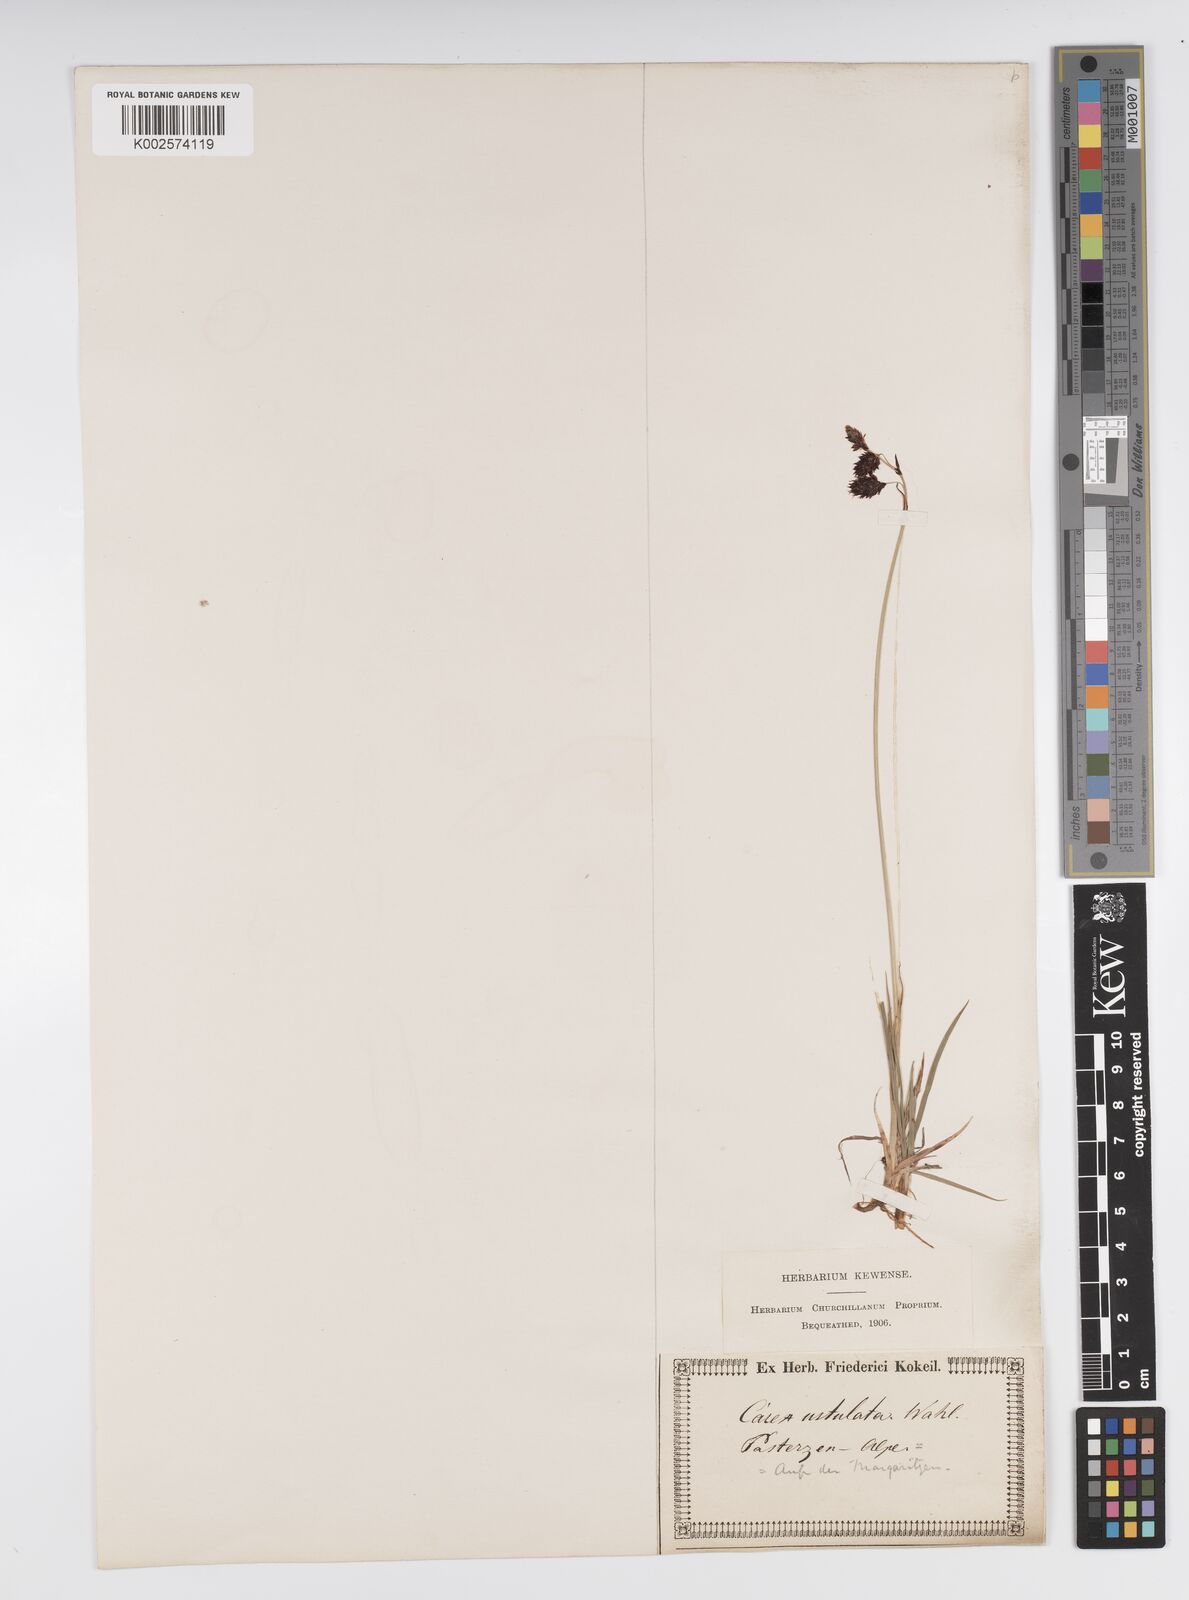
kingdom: Plantae
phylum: Tracheophyta
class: Liliopsida
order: Poales
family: Cyperaceae
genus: Carex
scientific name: Carex atrofusca
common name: Scorched alpine-sedge
